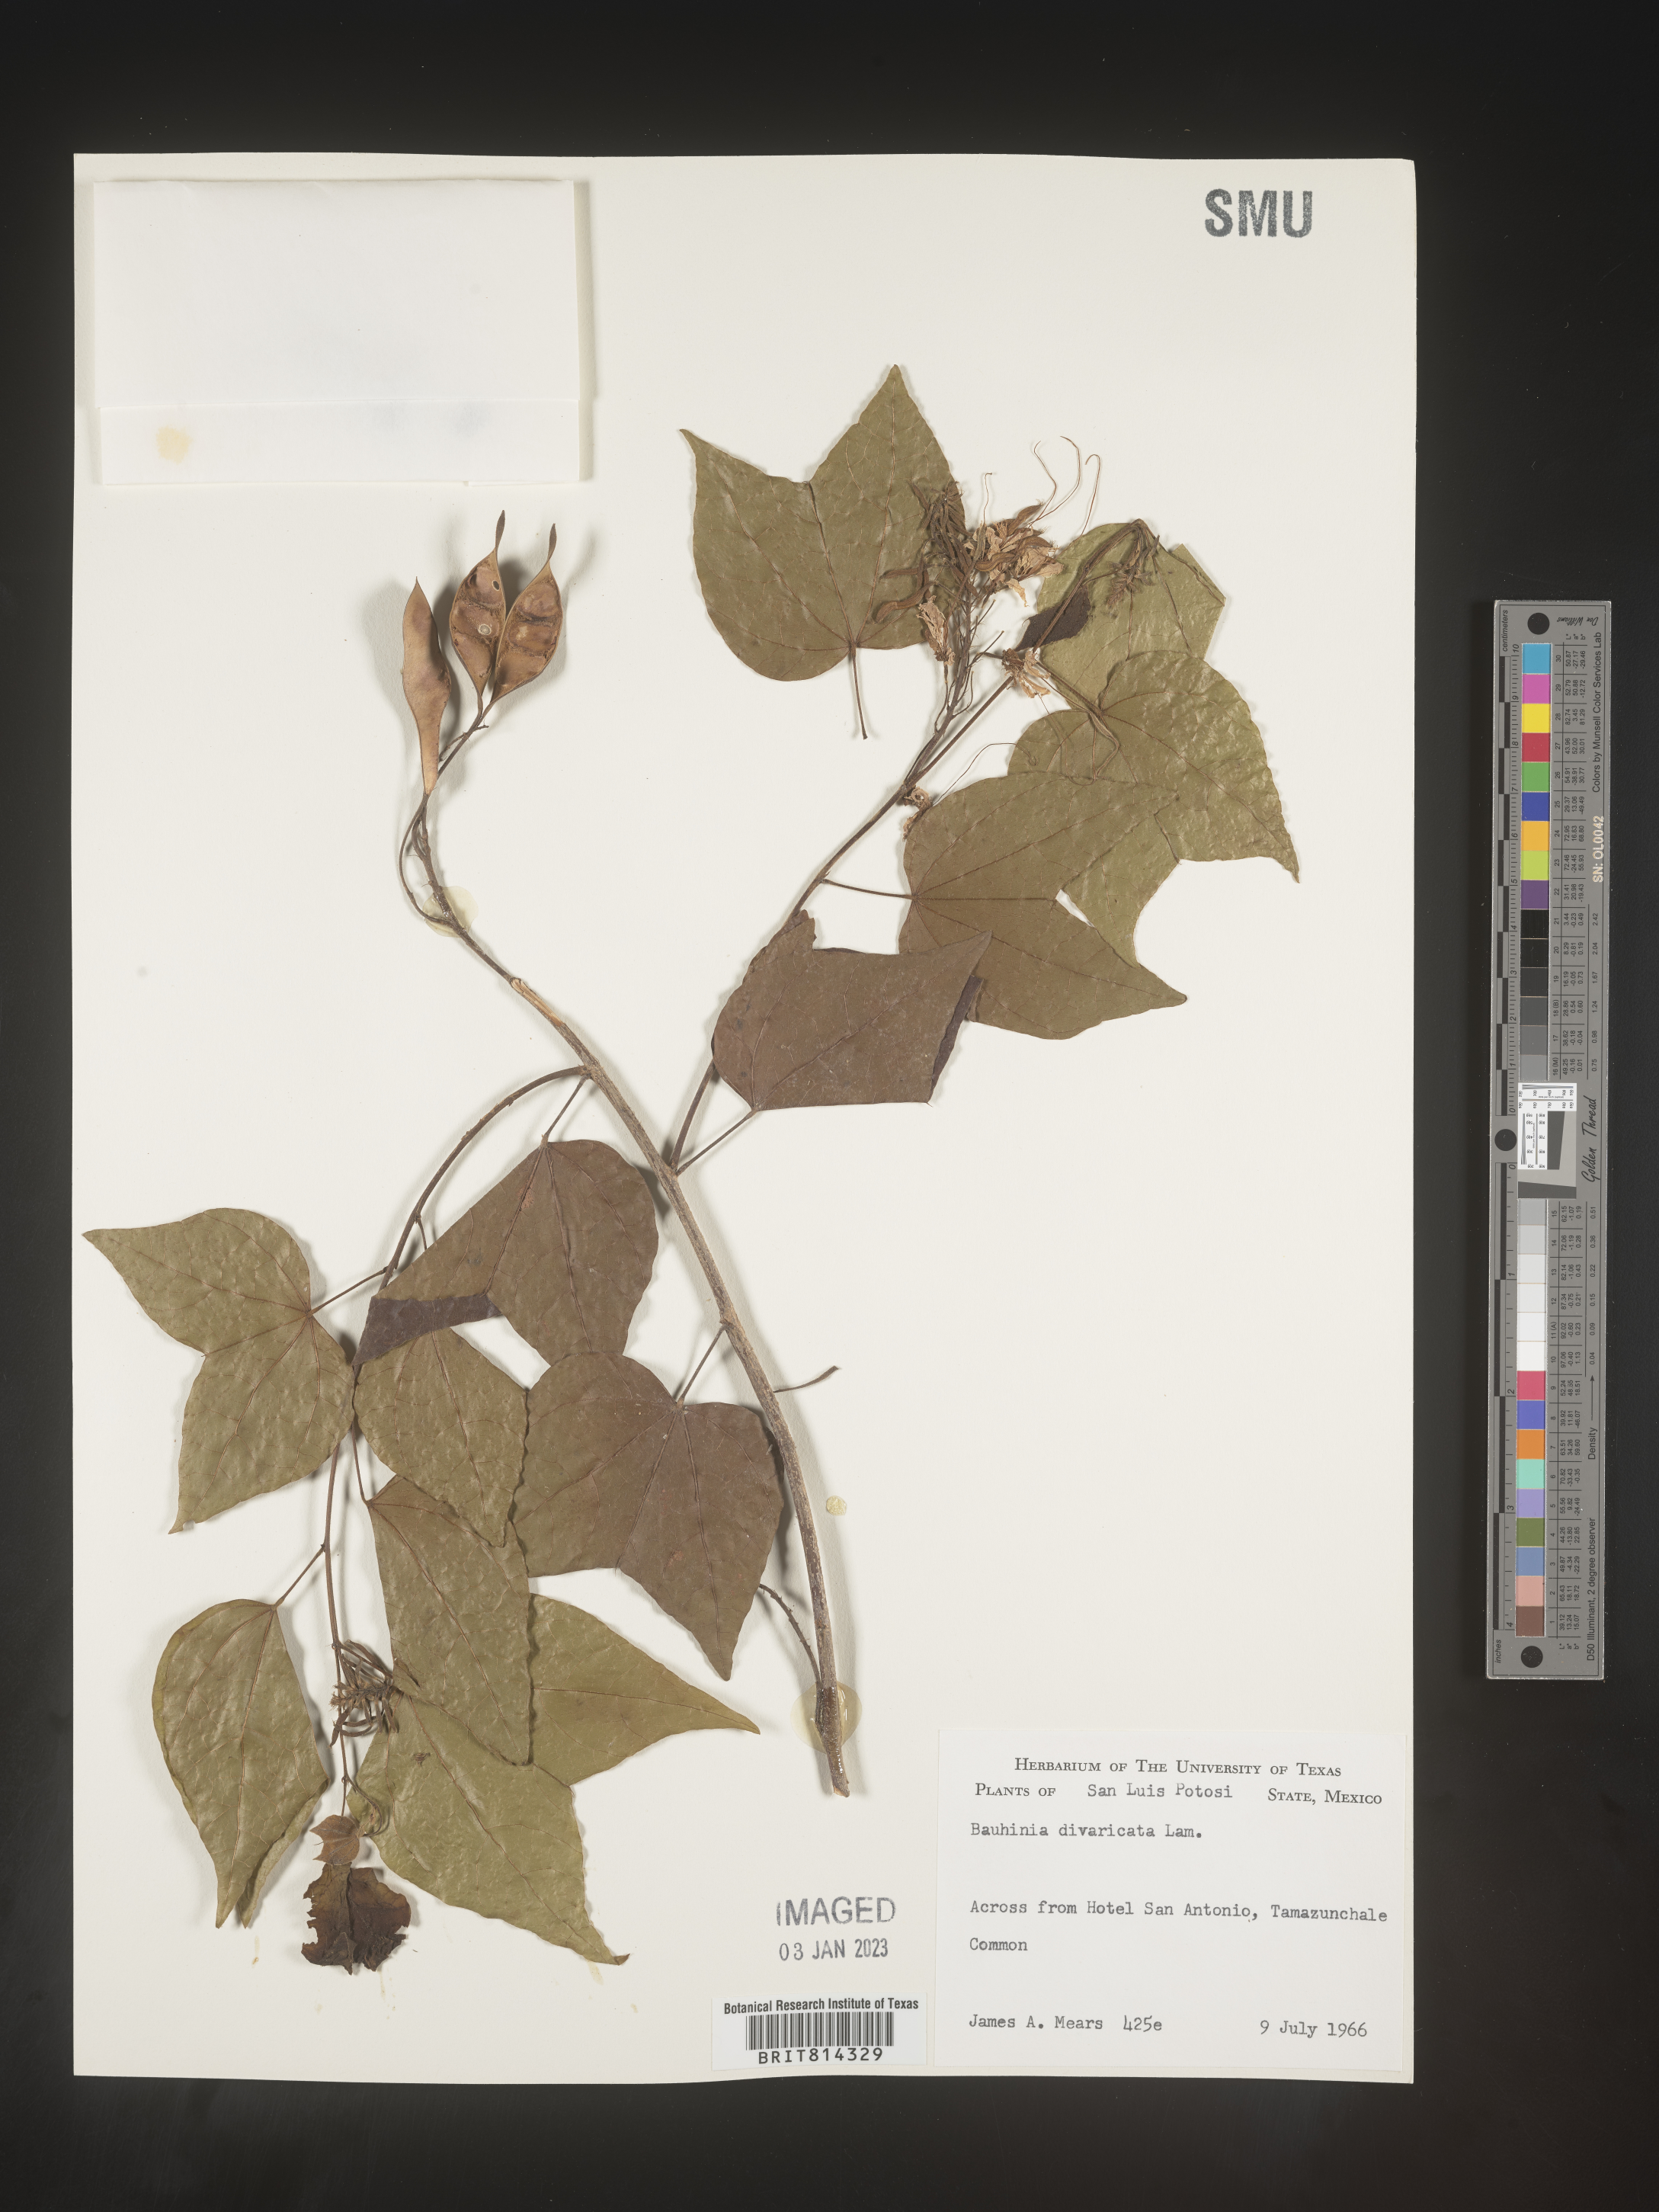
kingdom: Plantae
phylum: Tracheophyta
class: Magnoliopsida
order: Fabales
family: Fabaceae
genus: Bauhinia
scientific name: Bauhinia
